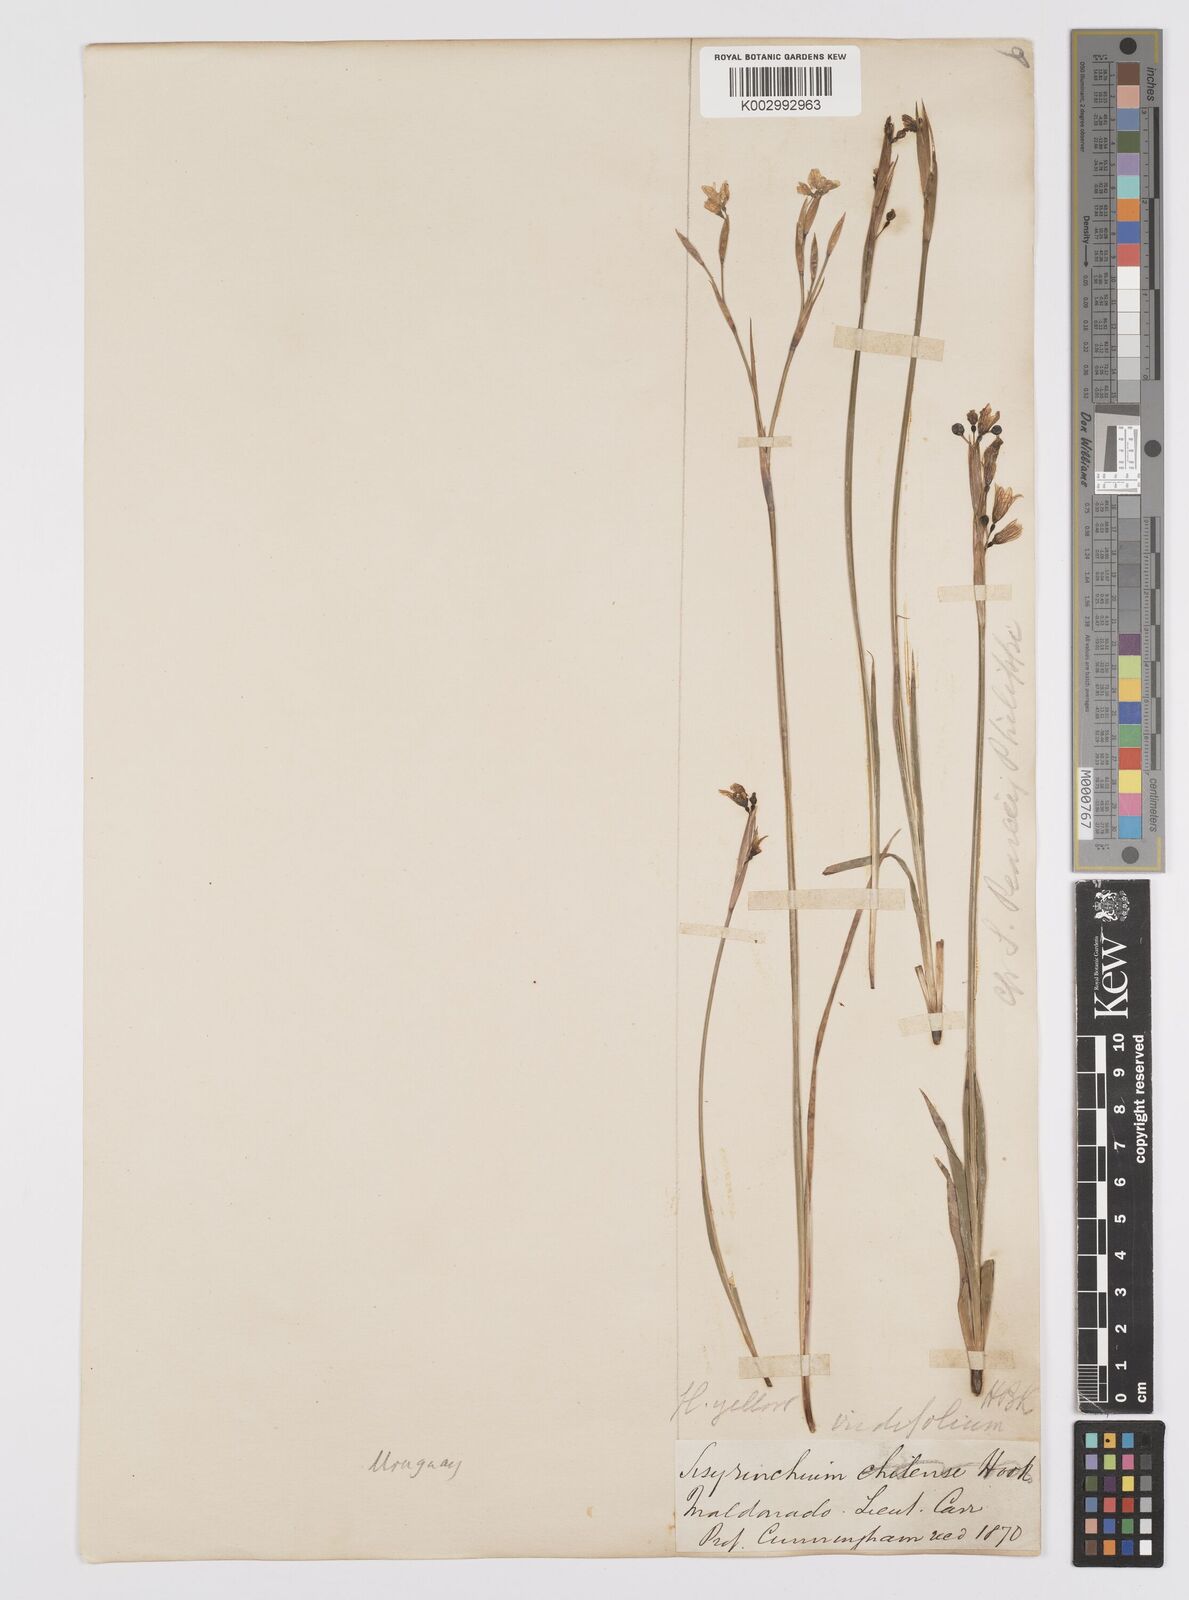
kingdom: Plantae
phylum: Tracheophyta
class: Liliopsida
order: Asparagales
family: Iridaceae
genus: Sisyrinchium
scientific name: Sisyrinchium pachyrhizum
